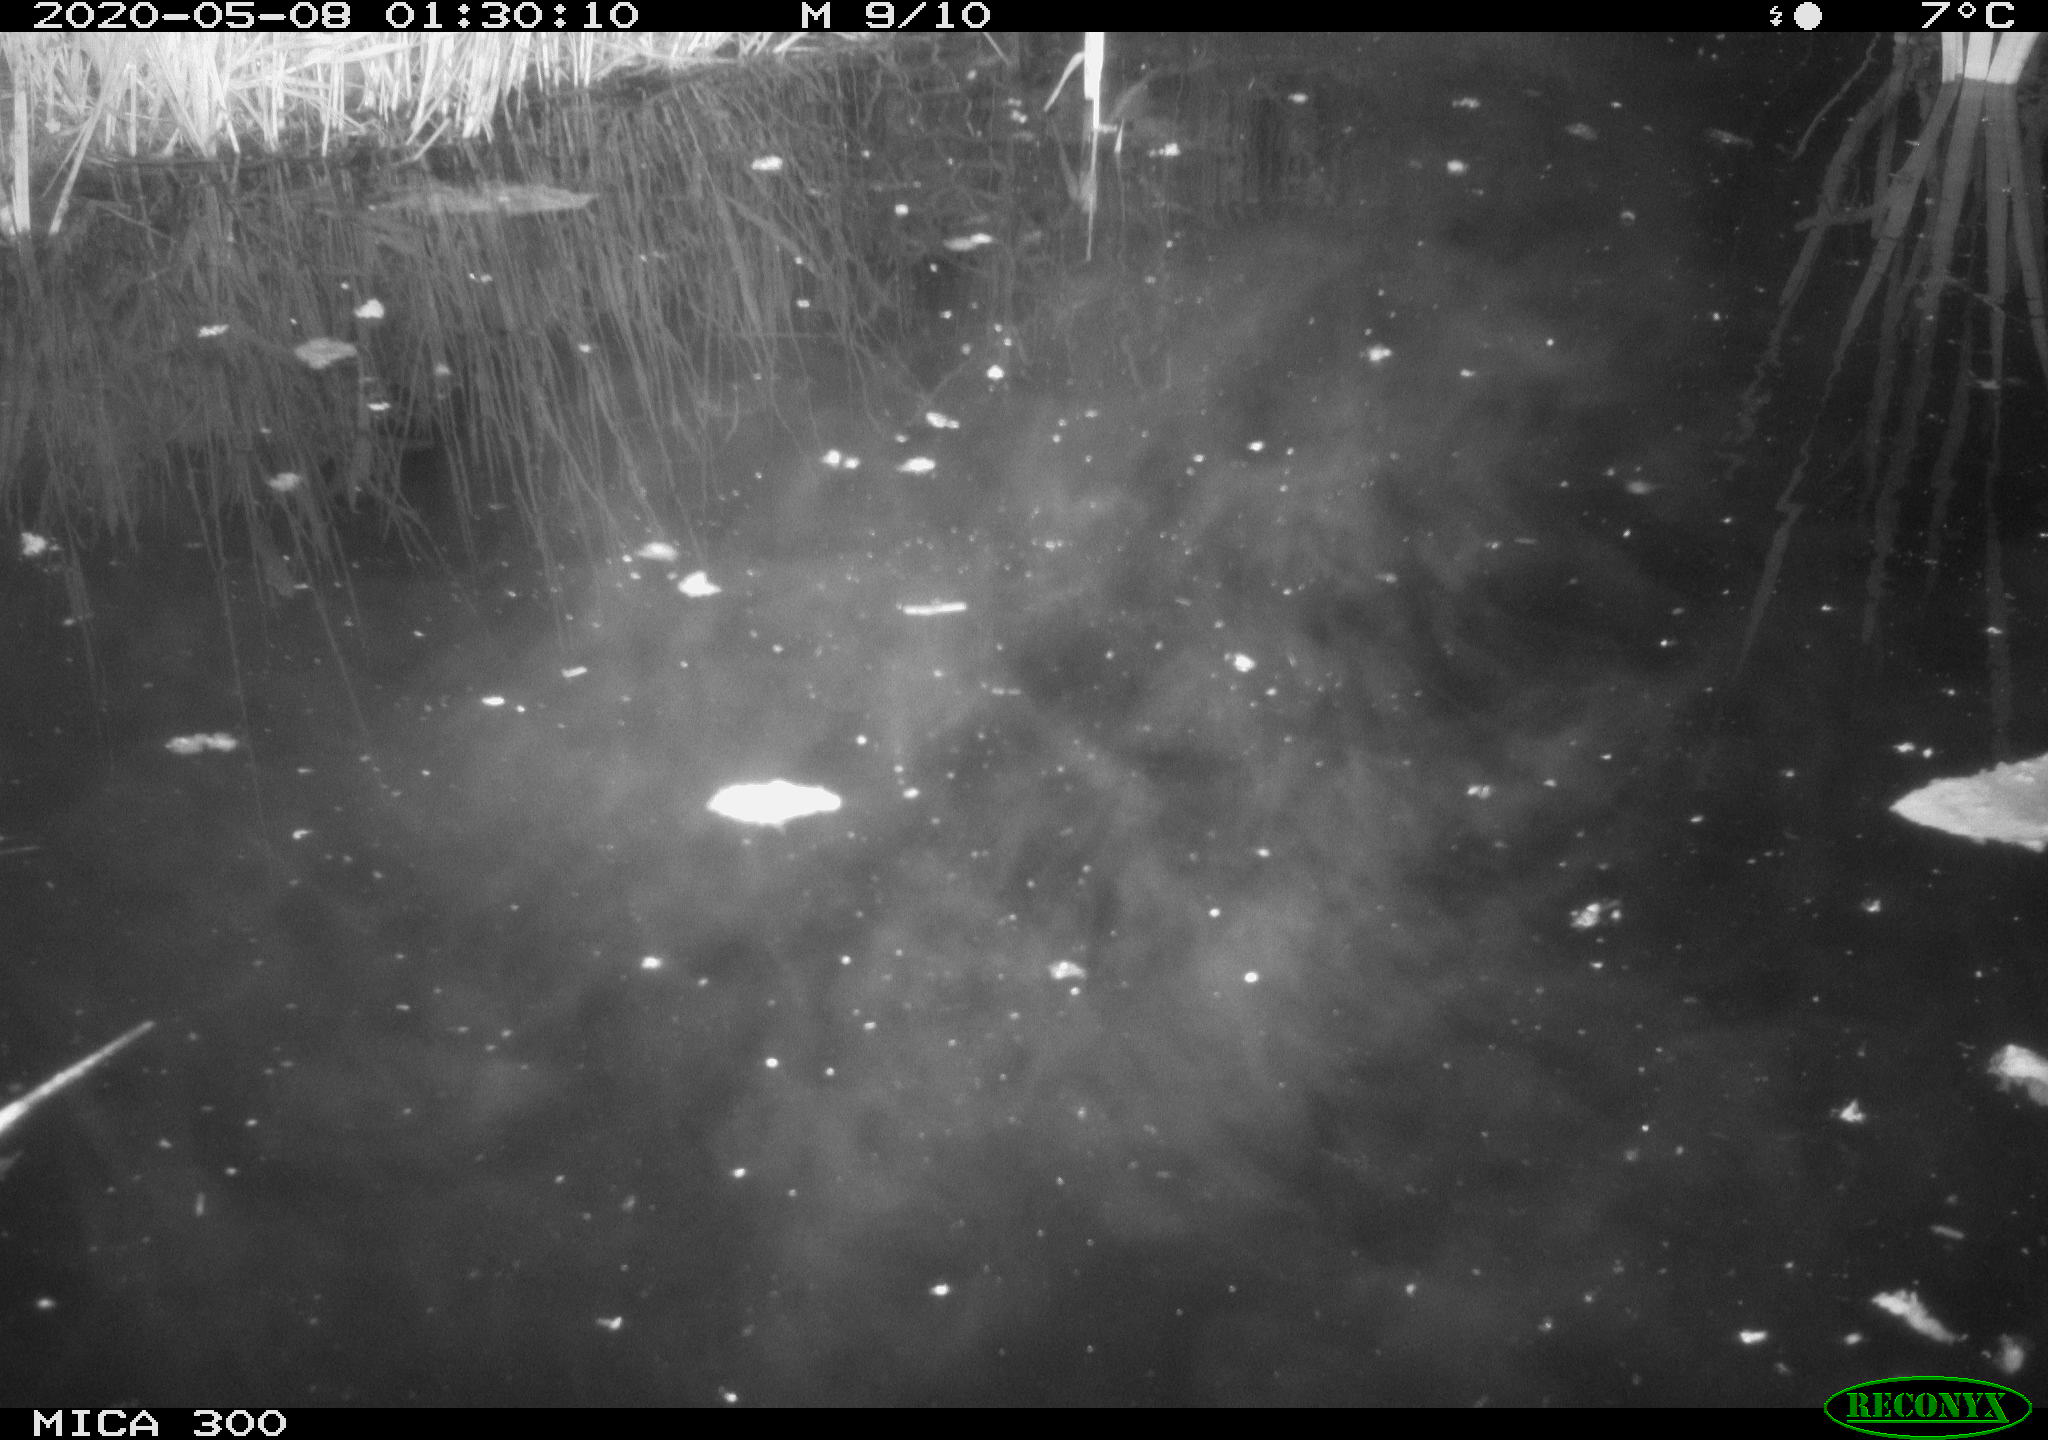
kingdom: Animalia
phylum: Chordata
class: Mammalia
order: Rodentia
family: Castoridae
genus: Castor
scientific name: Castor fiber
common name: Eurasian beaver
